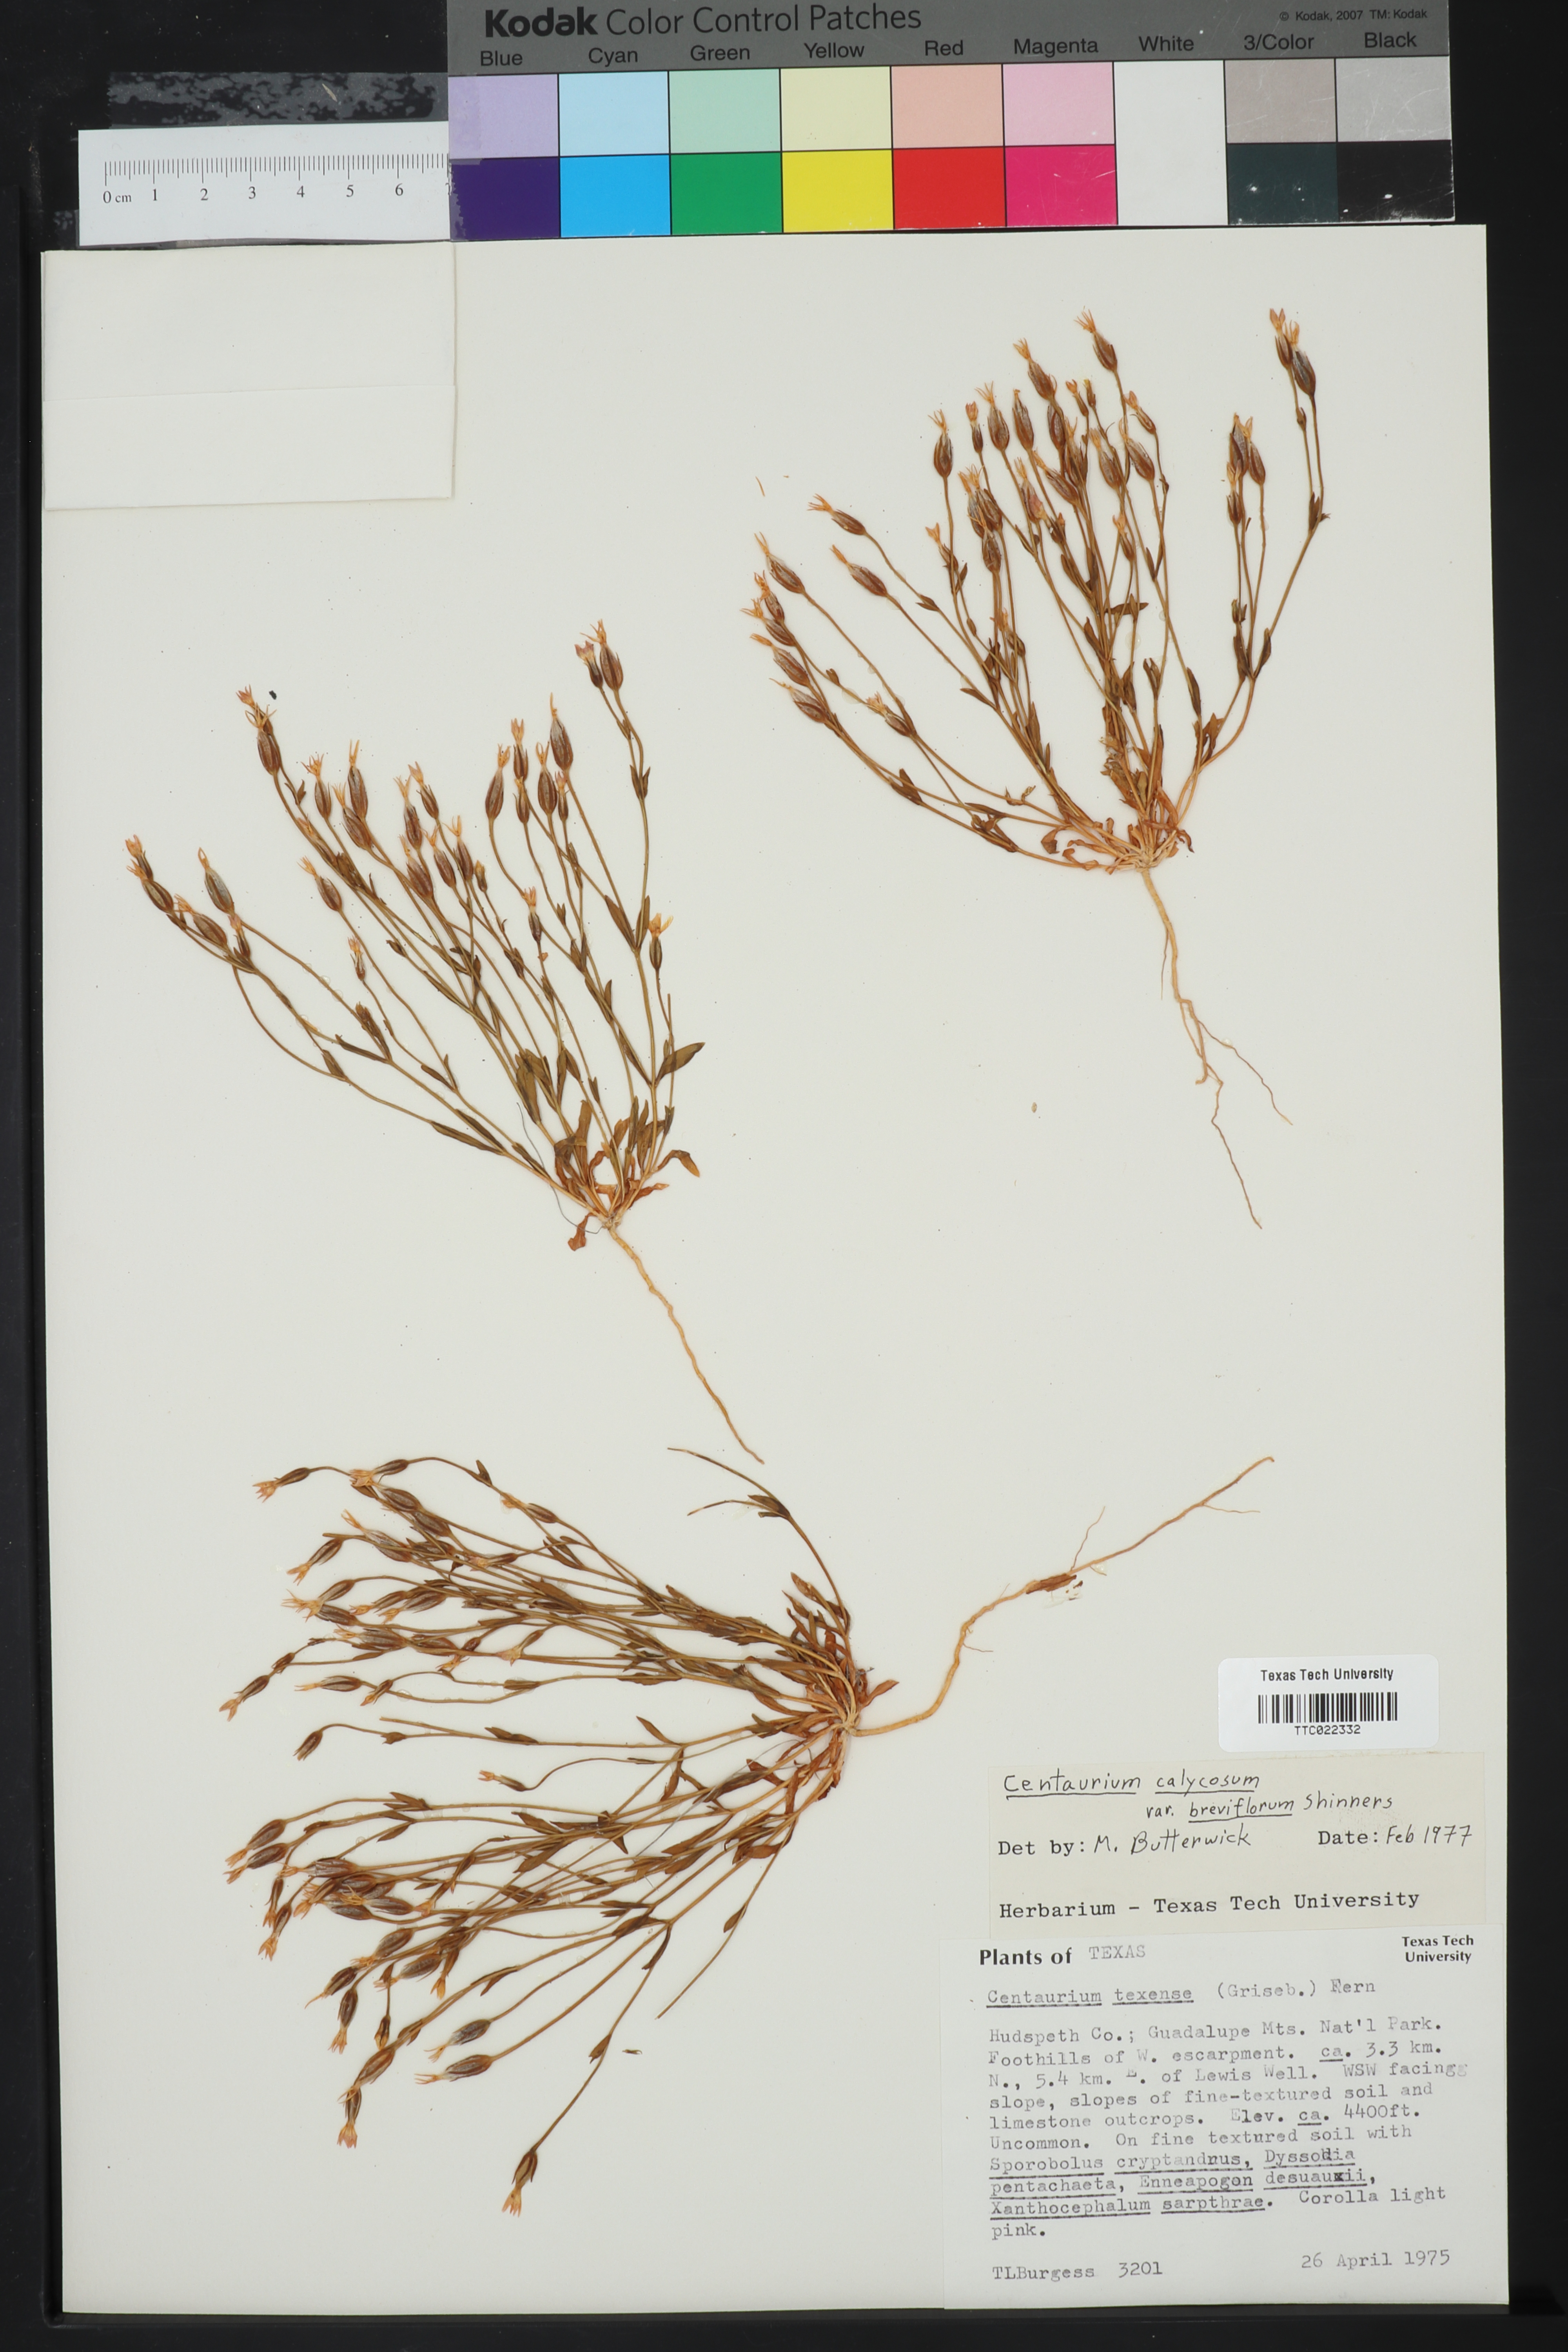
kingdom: Plantae
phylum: Tracheophyta
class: Magnoliopsida
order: Gentianales
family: Gentianaceae
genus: Zeltnera
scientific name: Zeltnera breviflora
